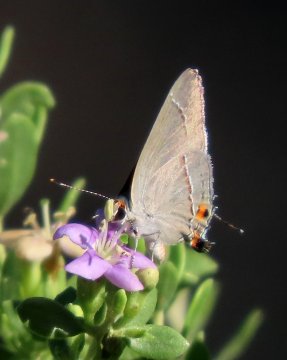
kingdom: Animalia
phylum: Arthropoda
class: Insecta
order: Lepidoptera
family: Lycaenidae
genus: Strymon
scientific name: Strymon melinus
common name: Gray Hairstreak
